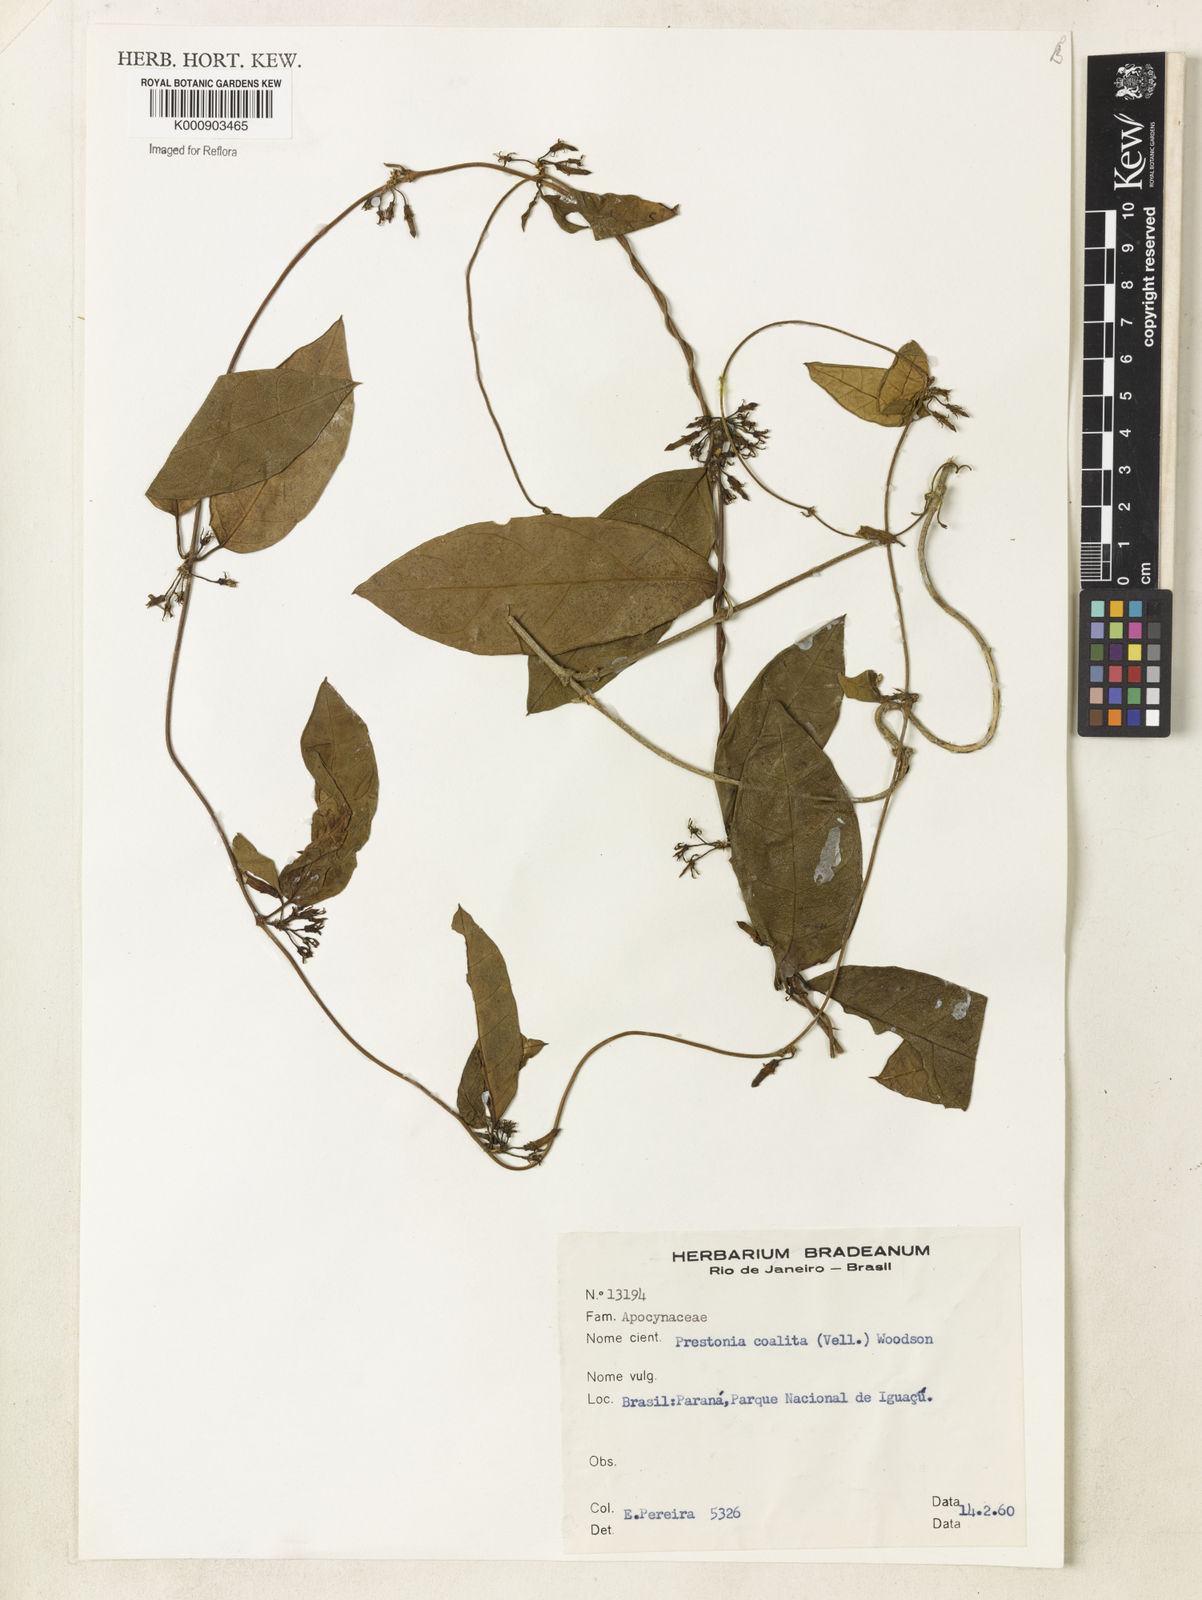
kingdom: Plantae
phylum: Tracheophyta
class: Magnoliopsida
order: Gentianales
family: Apocynaceae
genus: Prestonia
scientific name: Prestonia coalita
